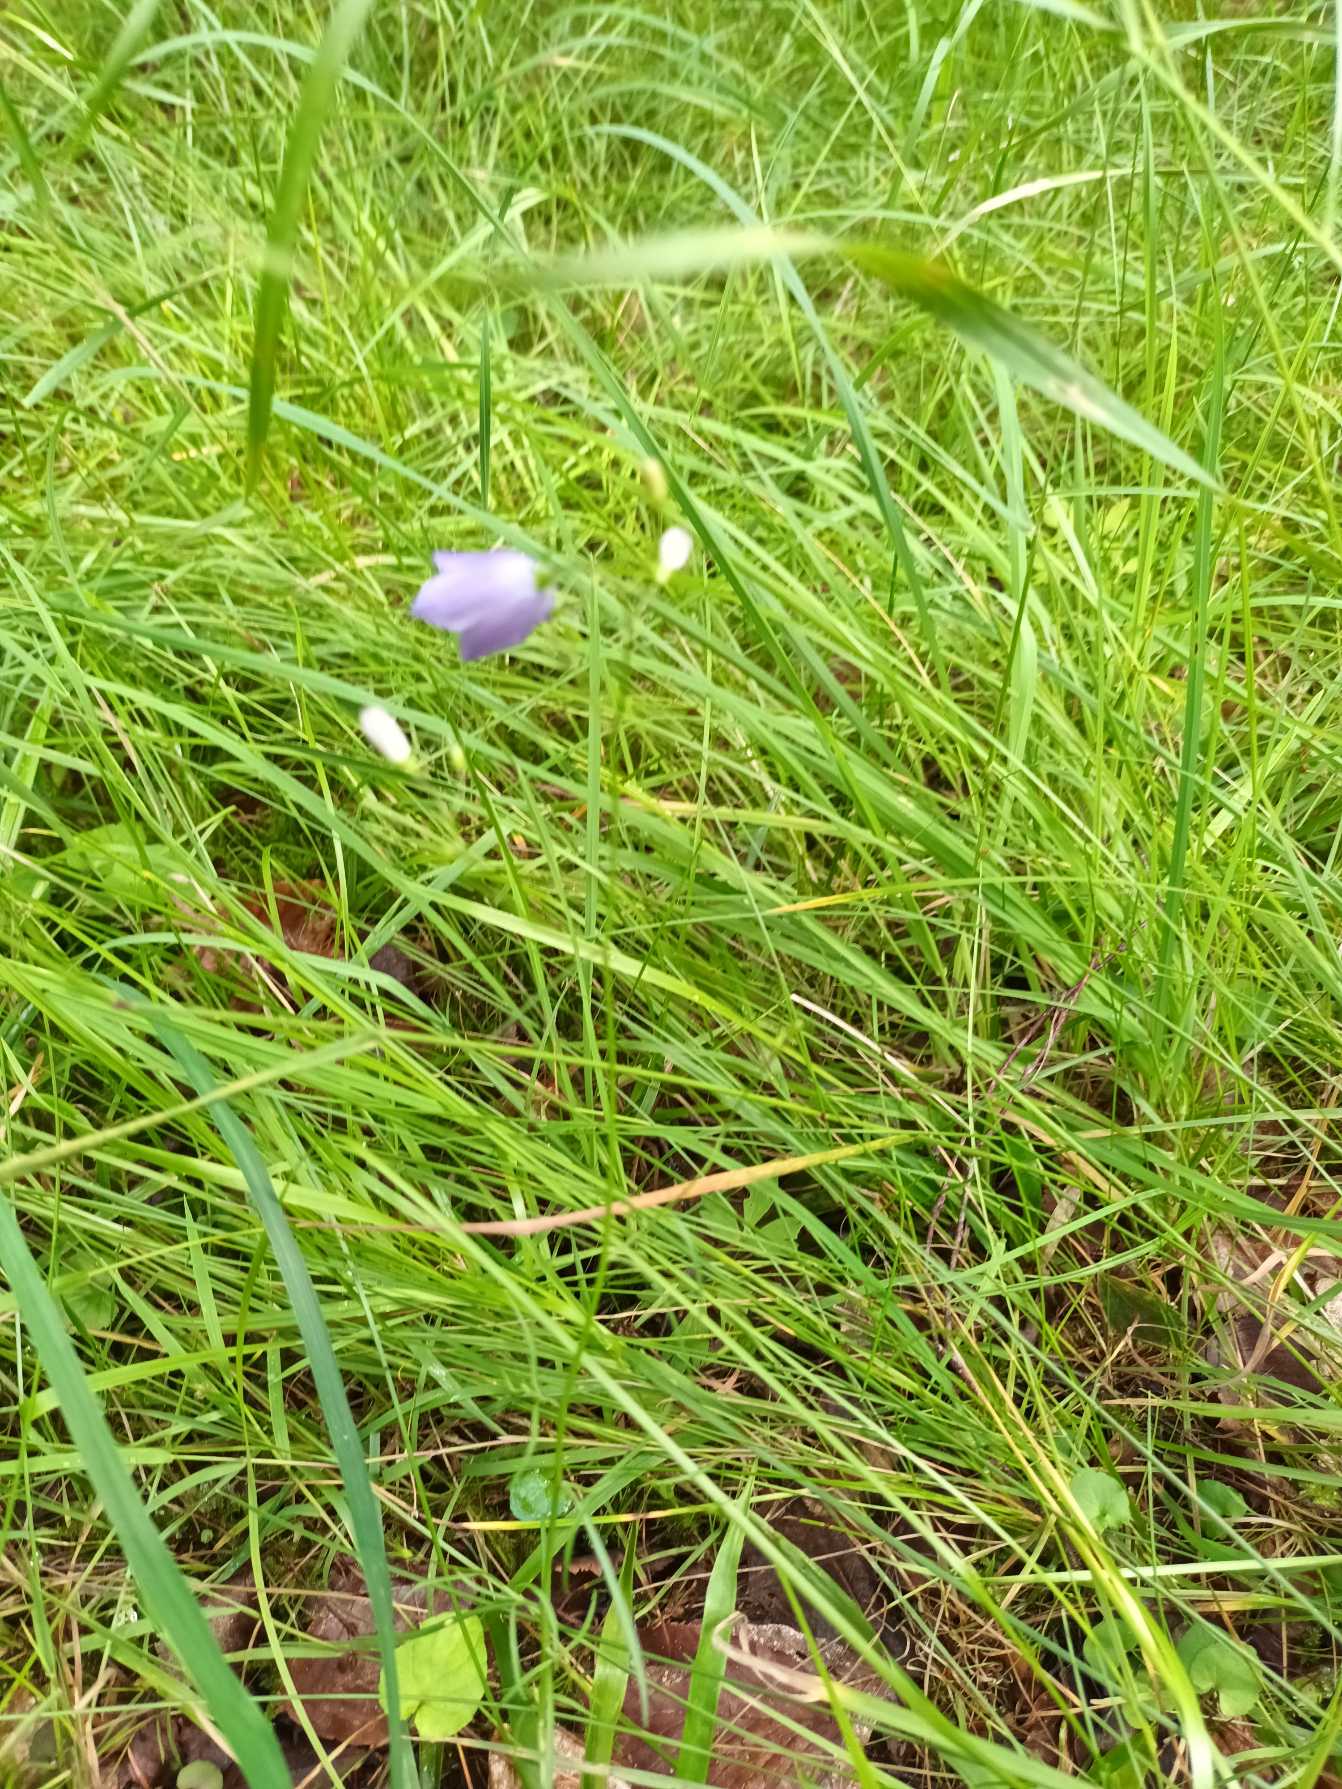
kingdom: Plantae
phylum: Tracheophyta
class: Magnoliopsida
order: Asterales
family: Campanulaceae
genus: Campanula
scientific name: Campanula rotundifolia
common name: Liden klokke
